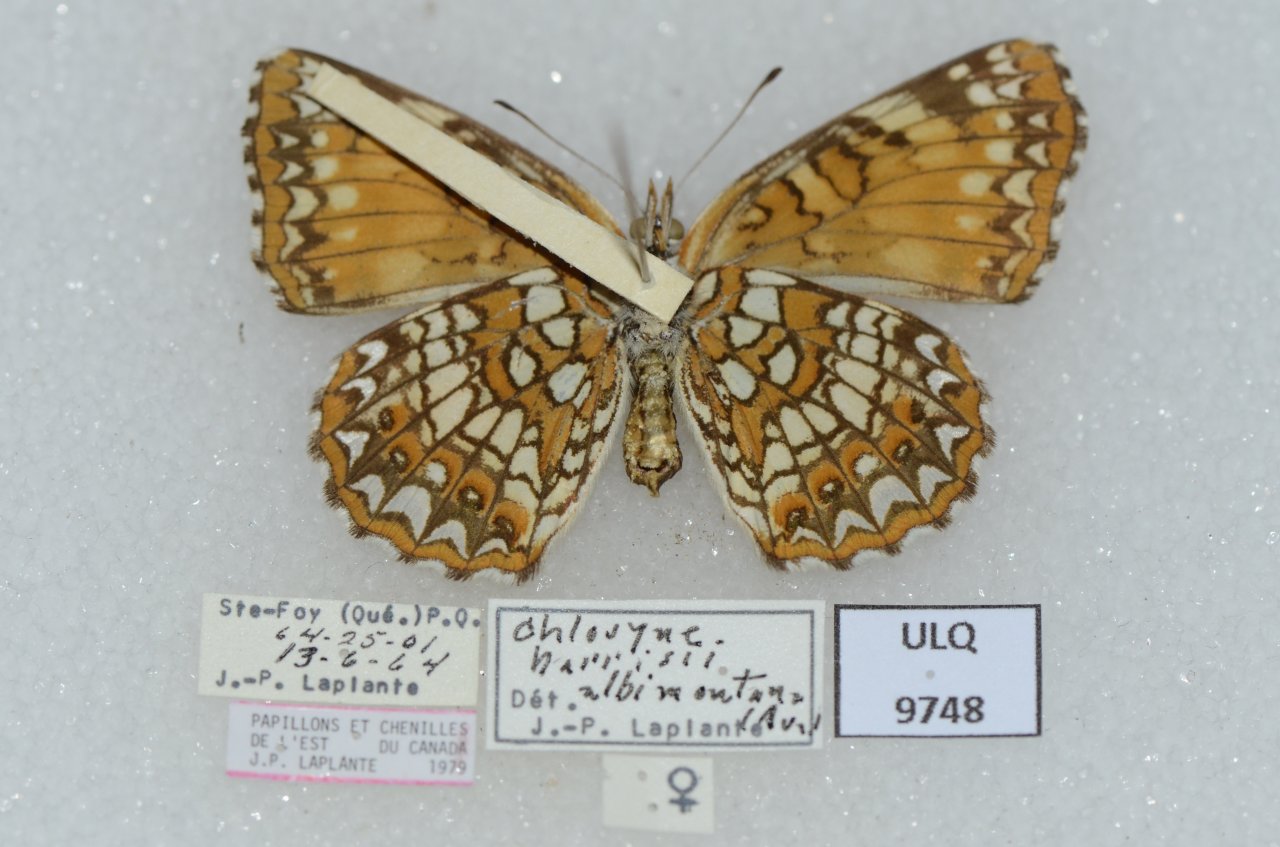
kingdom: Animalia
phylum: Arthropoda
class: Insecta
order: Lepidoptera
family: Nymphalidae
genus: Chlosyne
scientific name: Chlosyne harrisii
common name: Harris's Checkerspot
